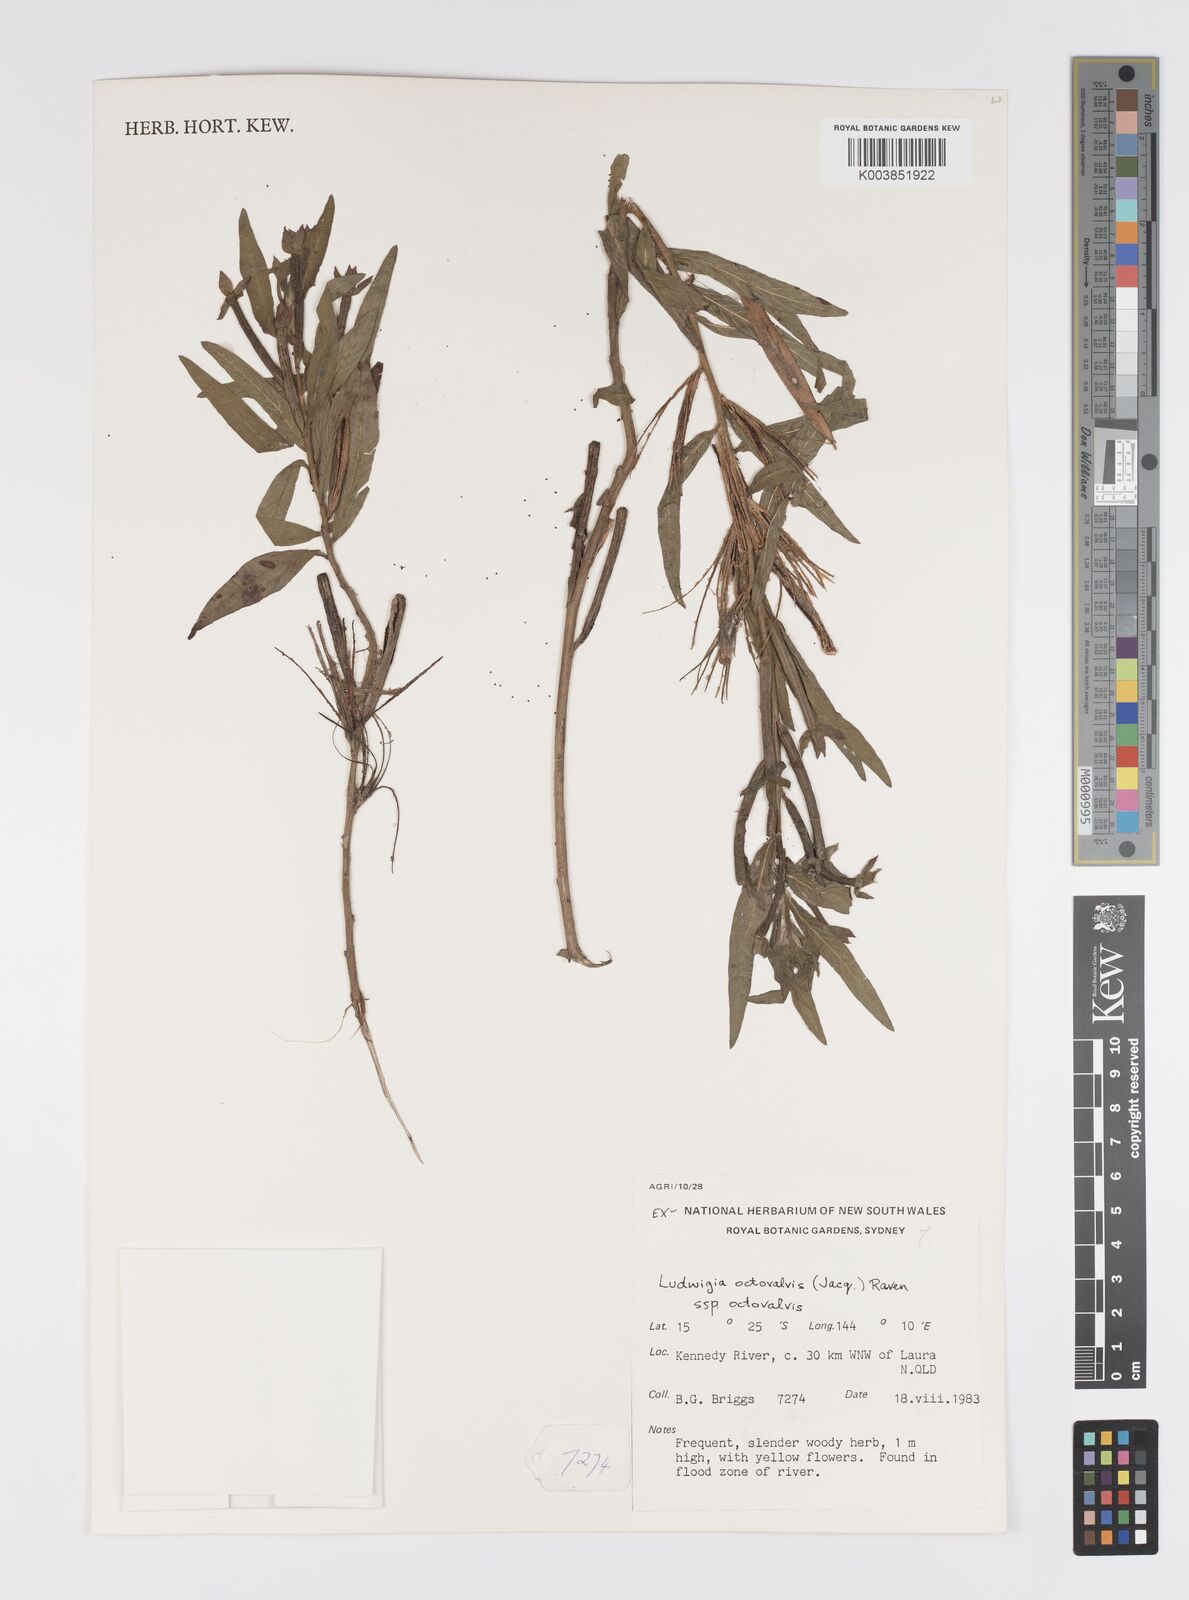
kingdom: Plantae
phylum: Tracheophyta
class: Magnoliopsida
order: Myrtales
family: Onagraceae
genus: Ludwigia
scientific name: Ludwigia octovalvis
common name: Water-primrose
